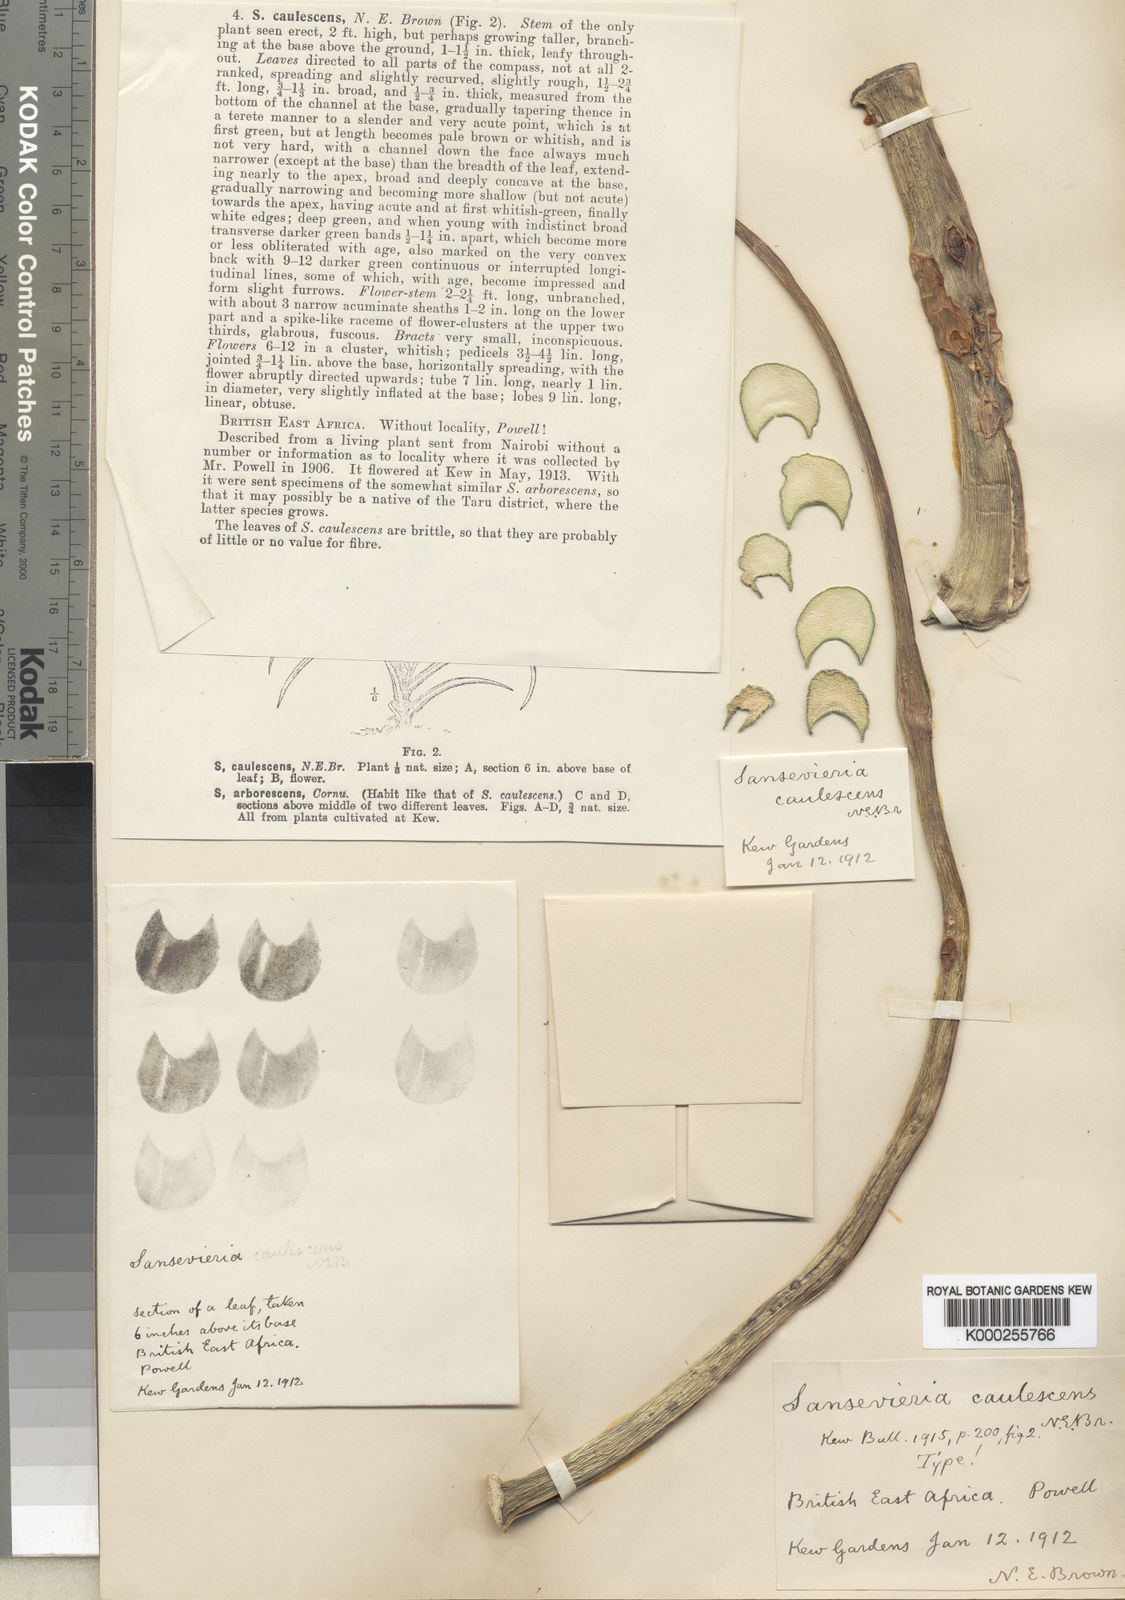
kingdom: Plantae
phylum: Tracheophyta
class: Liliopsida
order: Asparagales
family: Asparagaceae
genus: Dracaena
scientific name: Dracaena caulescens
